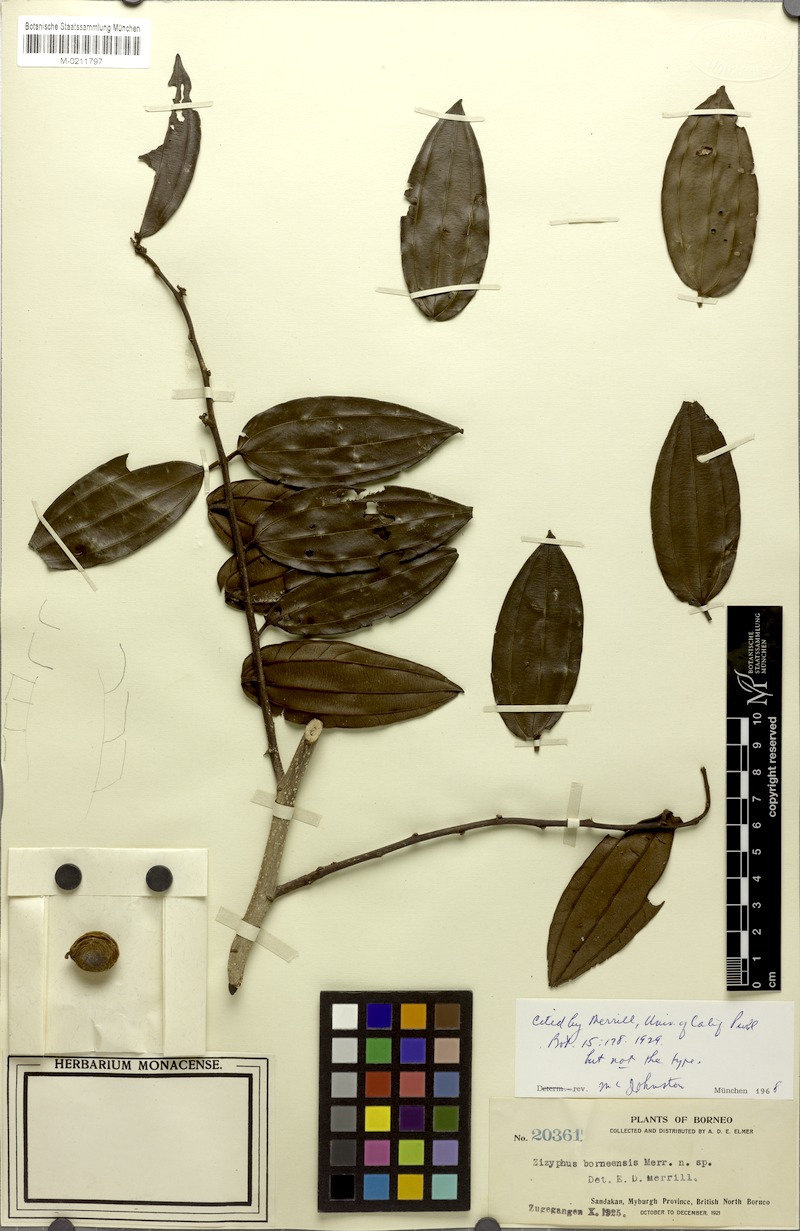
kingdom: Plantae
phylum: Tracheophyta
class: Magnoliopsida
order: Rosales
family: Rhamnaceae
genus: Ziziphus
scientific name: Ziziphus borneensis
